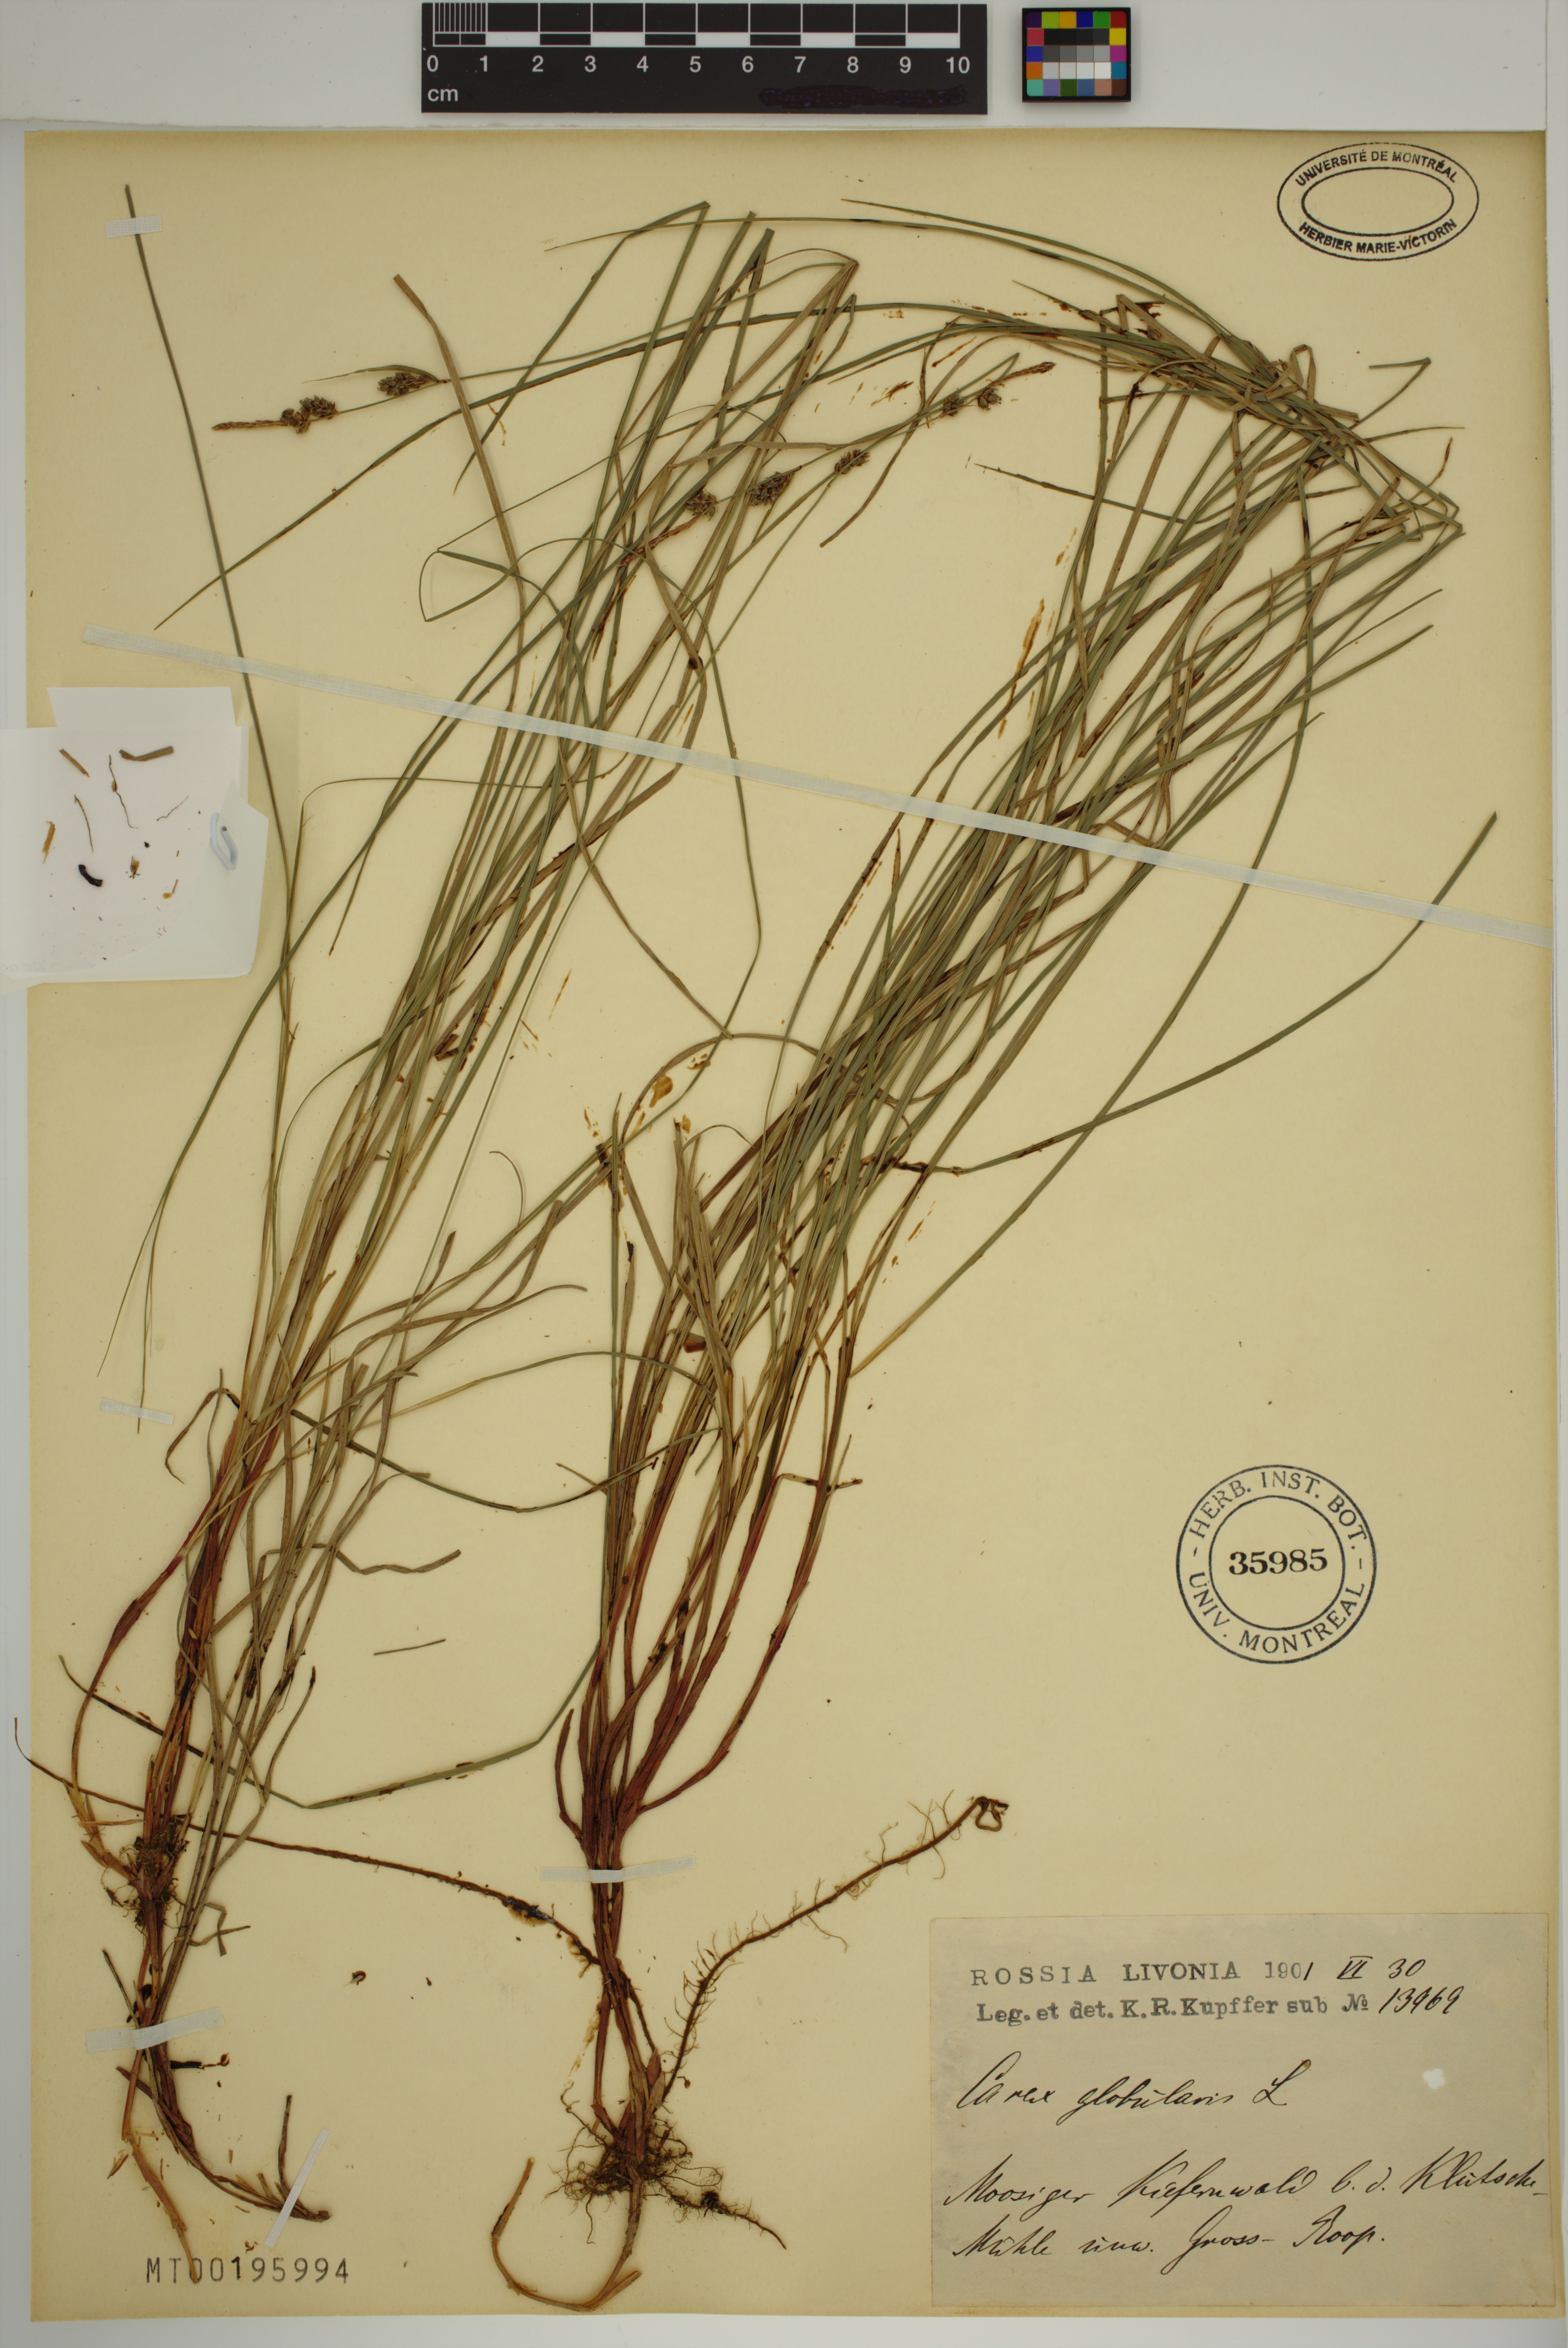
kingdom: Plantae
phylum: Tracheophyta
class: Liliopsida
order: Poales
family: Cyperaceae
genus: Carex
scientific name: Carex globularis
